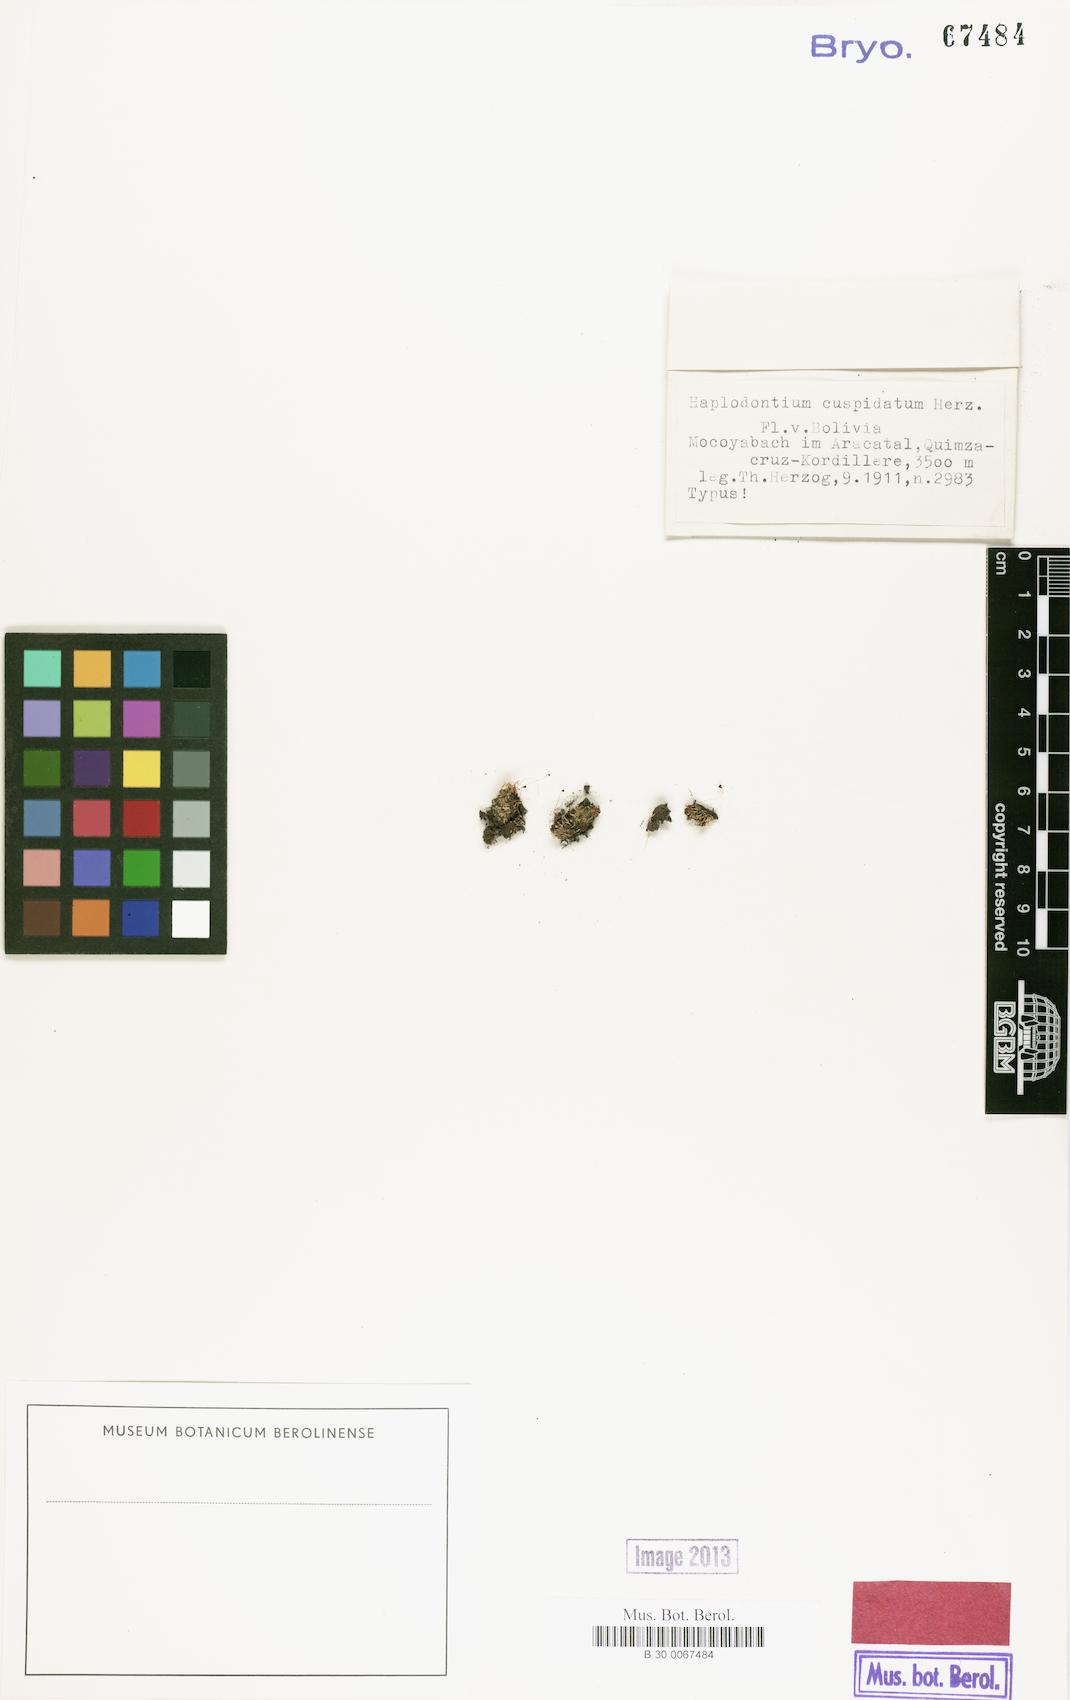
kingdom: Plantae
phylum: Bryophyta
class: Bryopsida
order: Bryales
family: Mniaceae
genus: Mielichhoferia
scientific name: Mielichhoferia cuspidata
